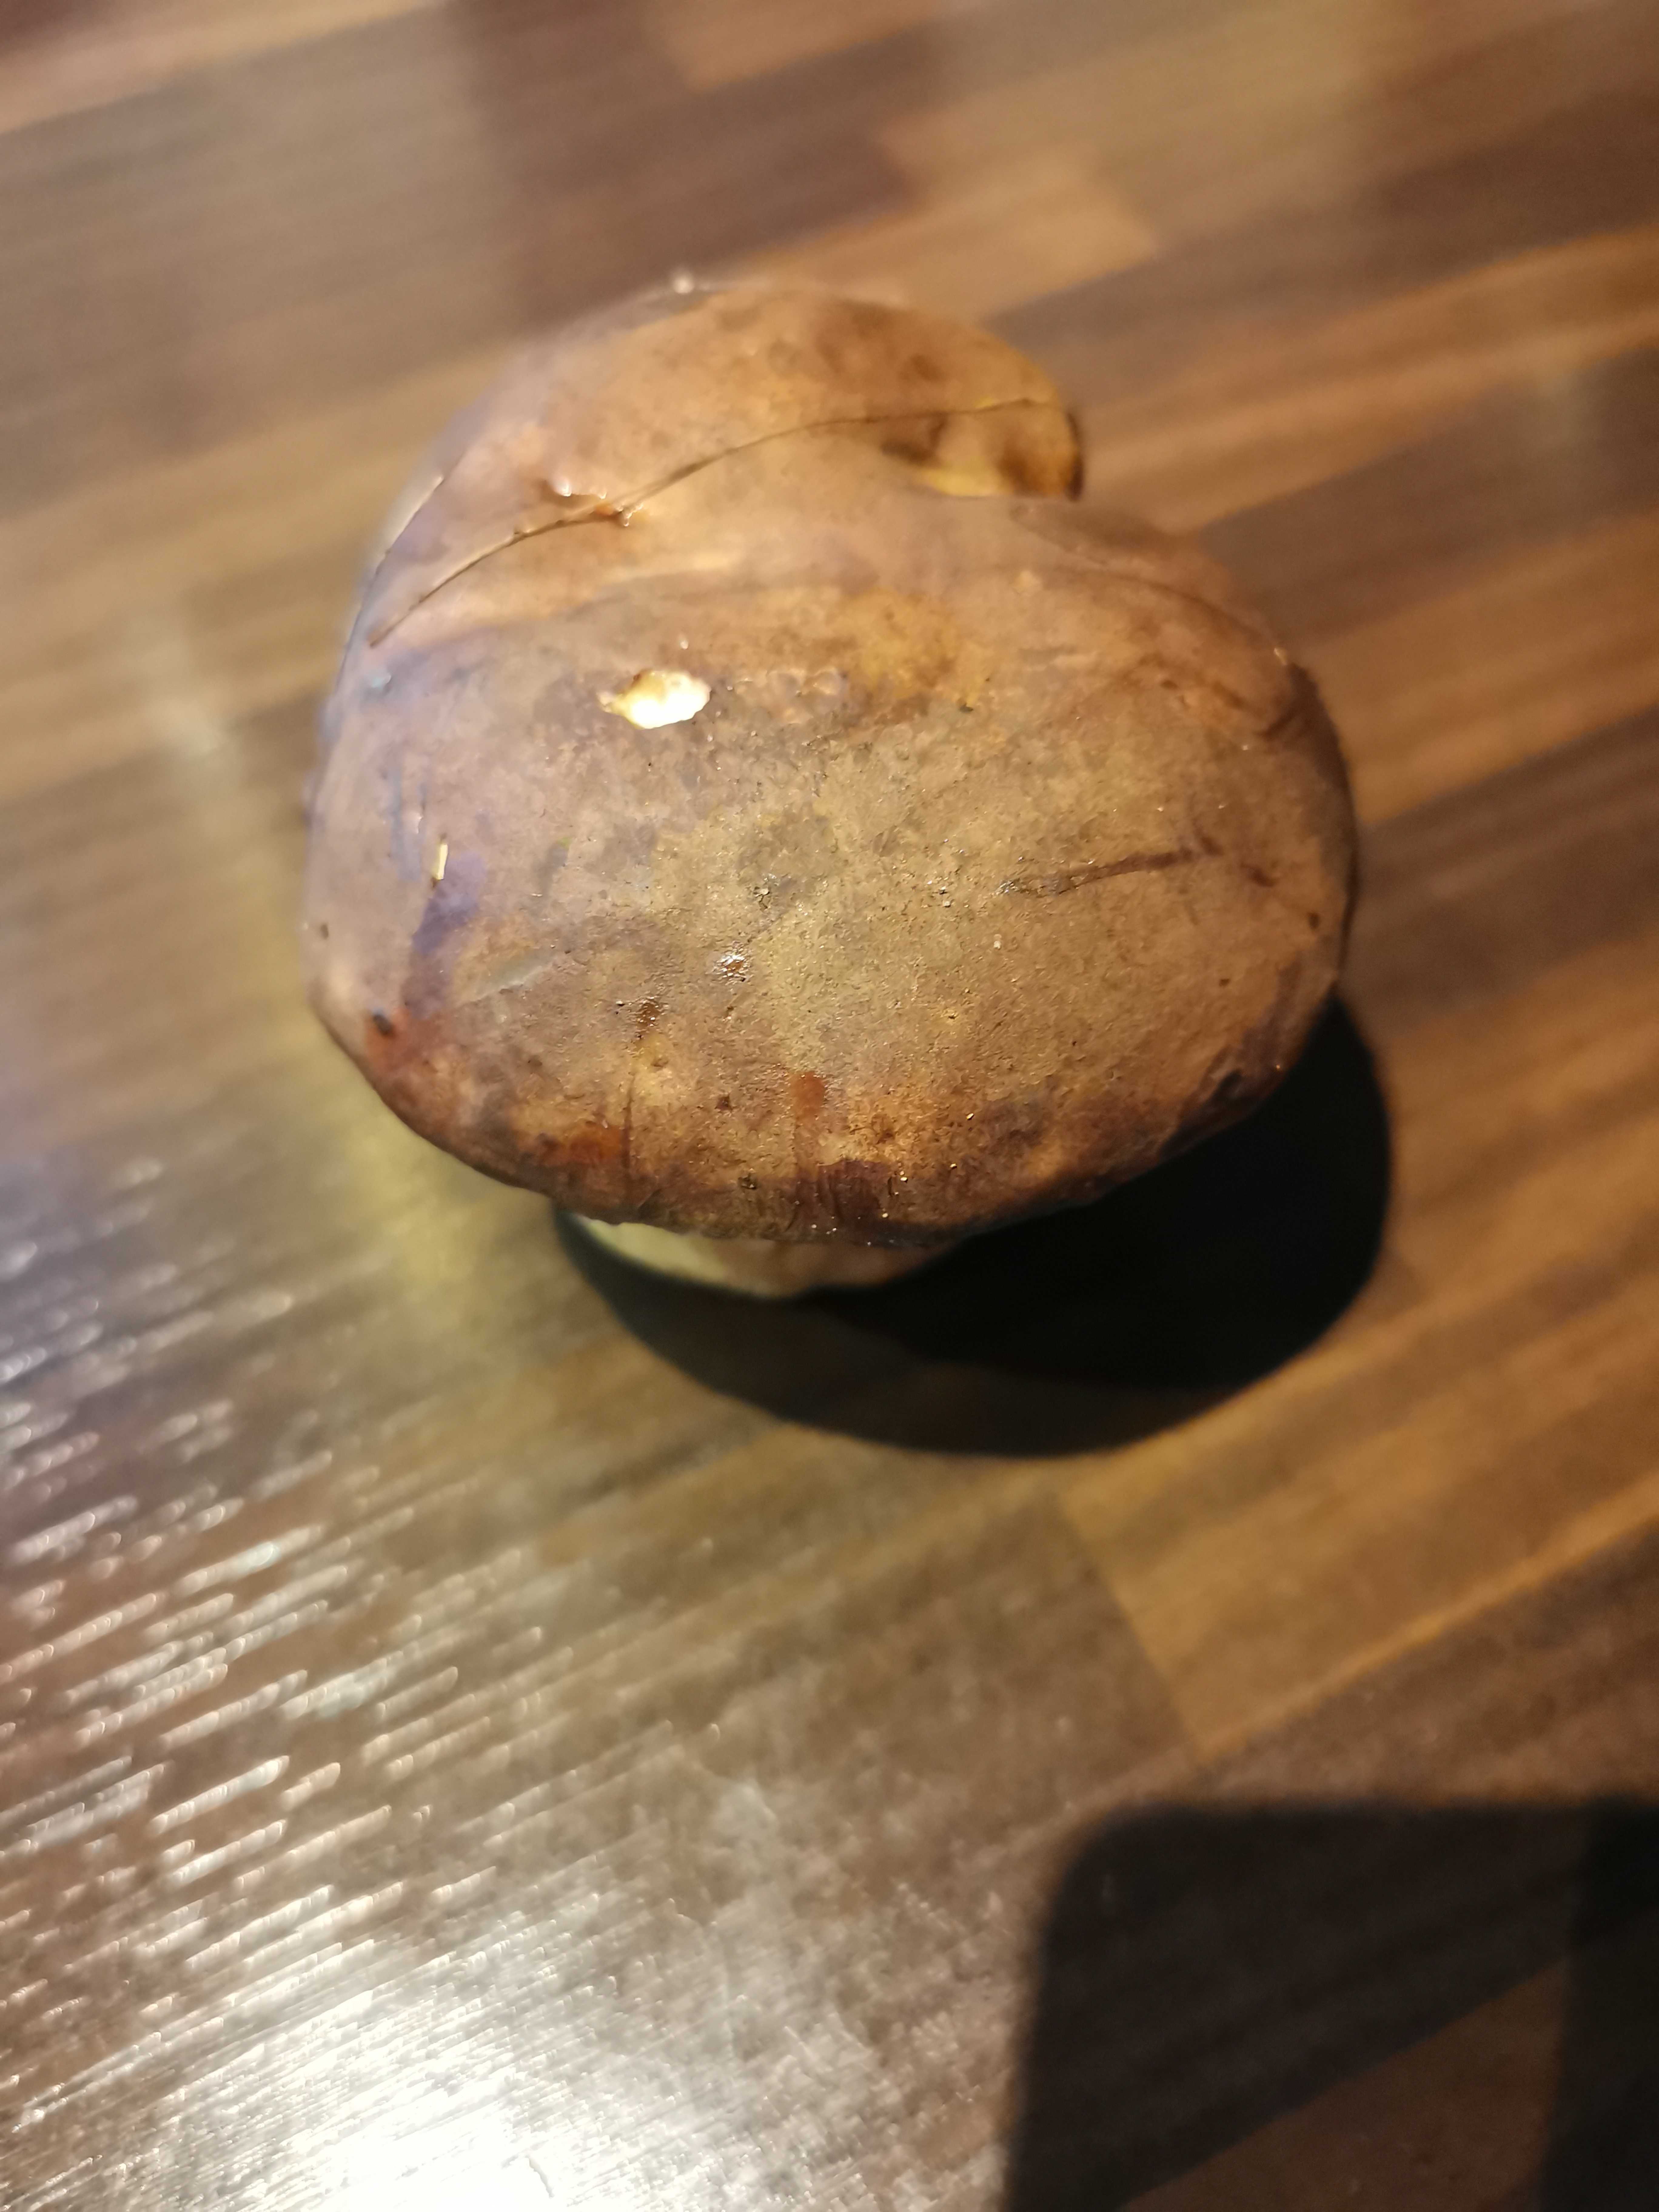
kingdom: Fungi
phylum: Basidiomycota
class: Agaricomycetes
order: Boletales
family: Boletaceae
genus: Imleria
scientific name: Imleria badia
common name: brunstokket rørhat
